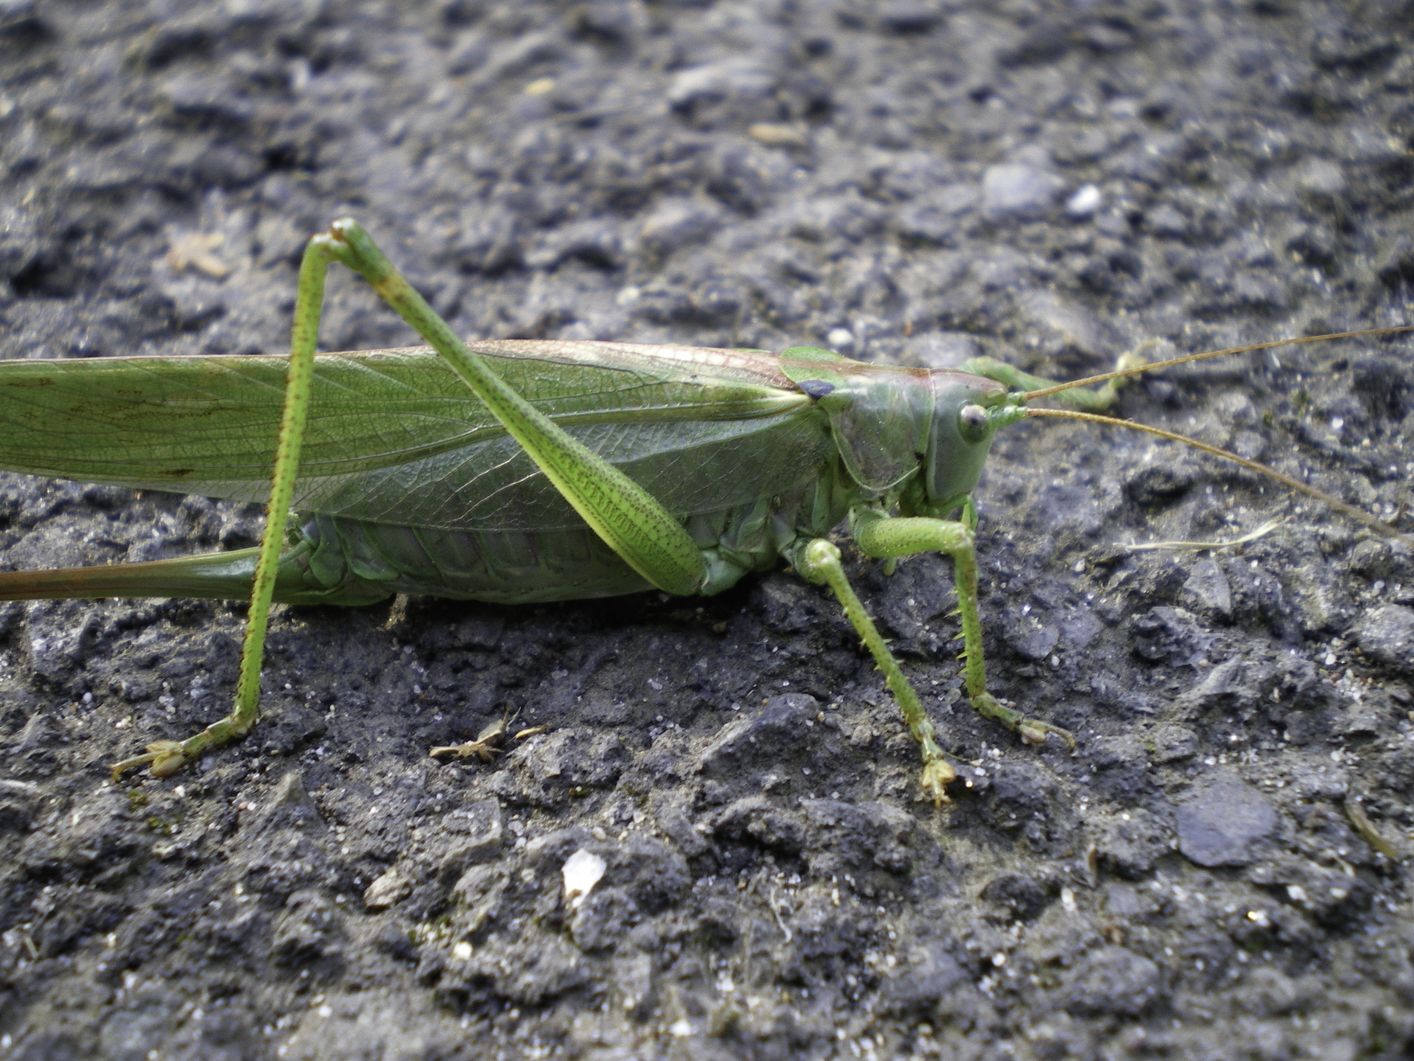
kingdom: Animalia
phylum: Arthropoda
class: Insecta
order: Orthoptera
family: Tettigoniidae
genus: Tettigonia
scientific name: Tettigonia viridissima
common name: Great green bush-cricket
